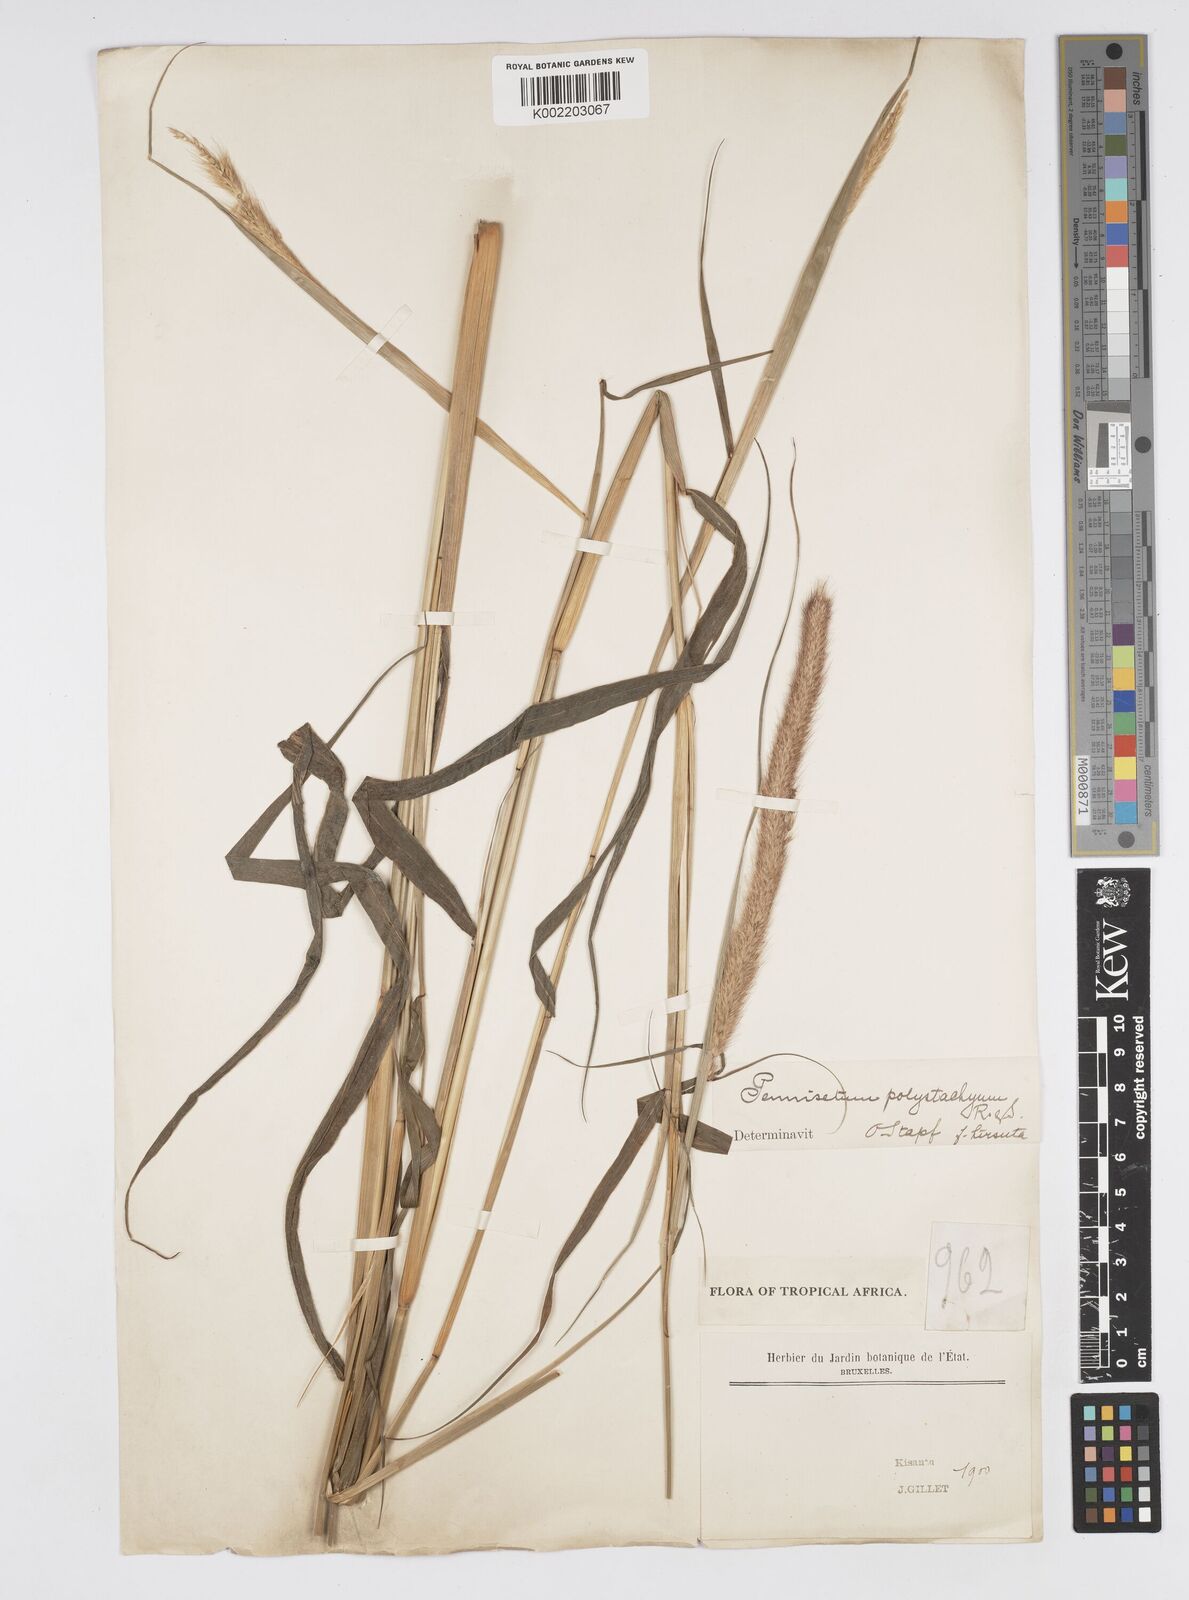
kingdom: Plantae
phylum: Tracheophyta
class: Liliopsida
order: Poales
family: Poaceae
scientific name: Poaceae
